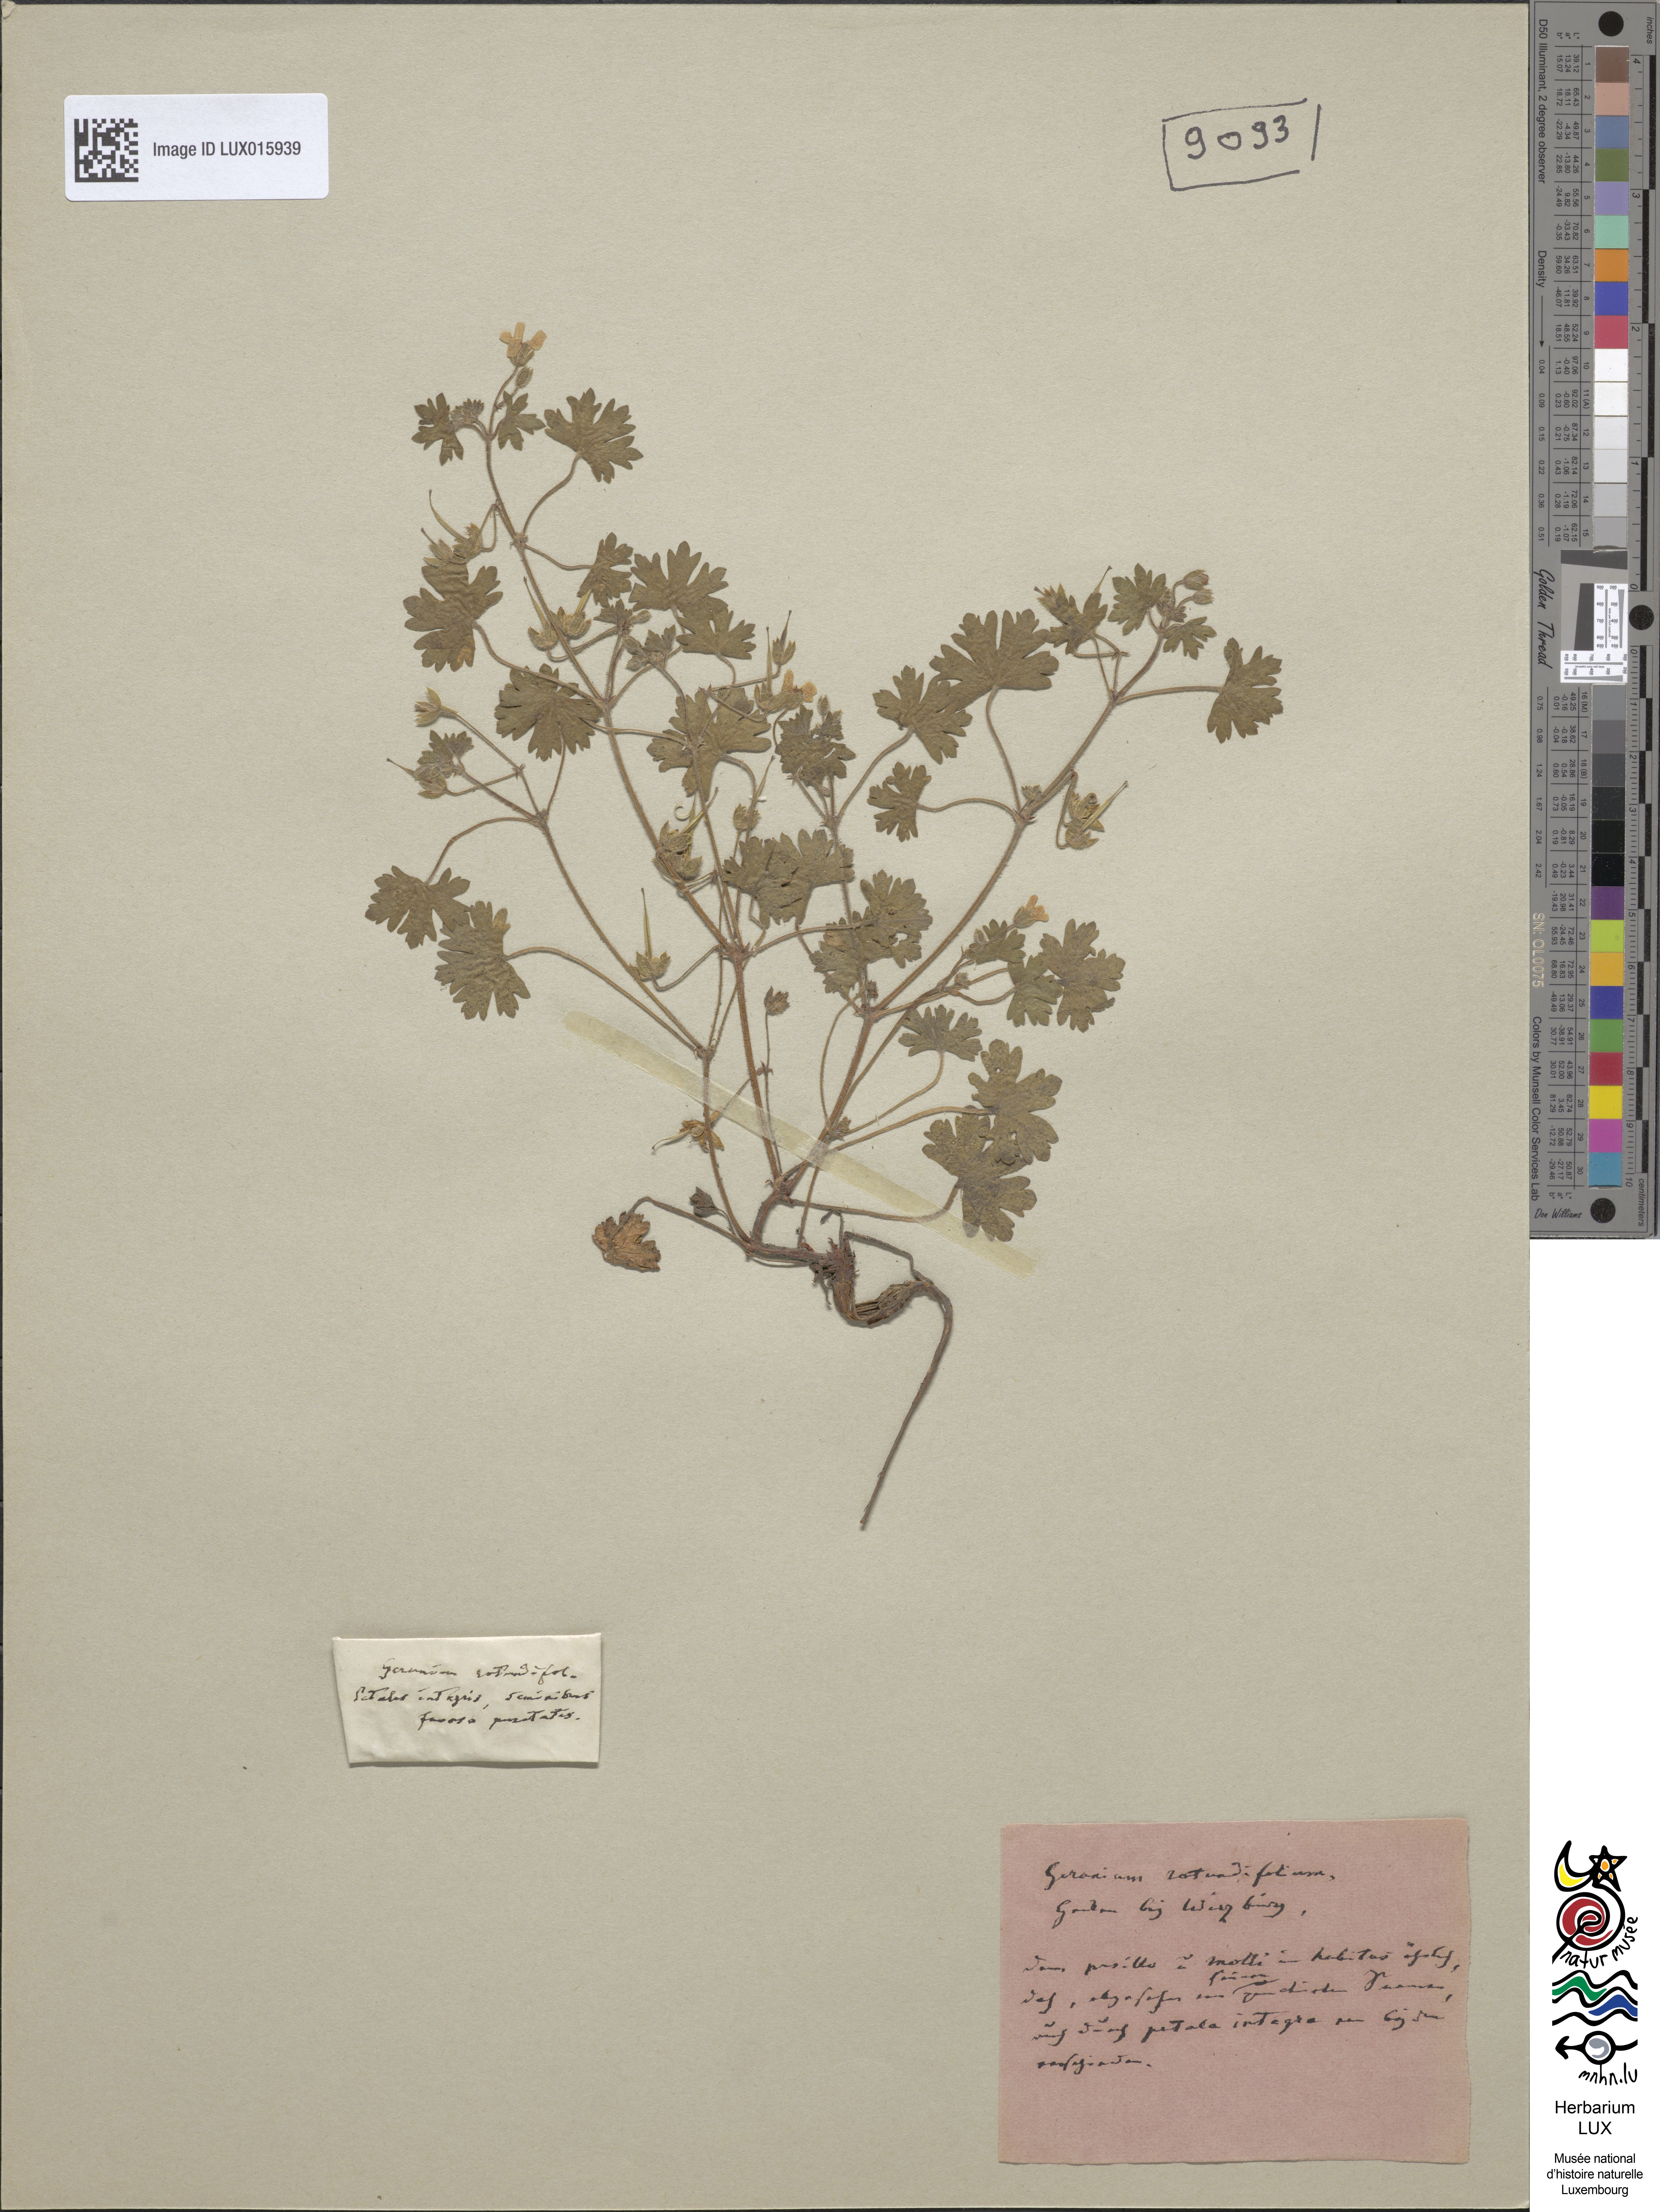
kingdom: Plantae
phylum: Tracheophyta
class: Magnoliopsida
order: Geraniales
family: Geraniaceae
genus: Geranium
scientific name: Geranium rotundifolium
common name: Round-leaved crane's-bill
